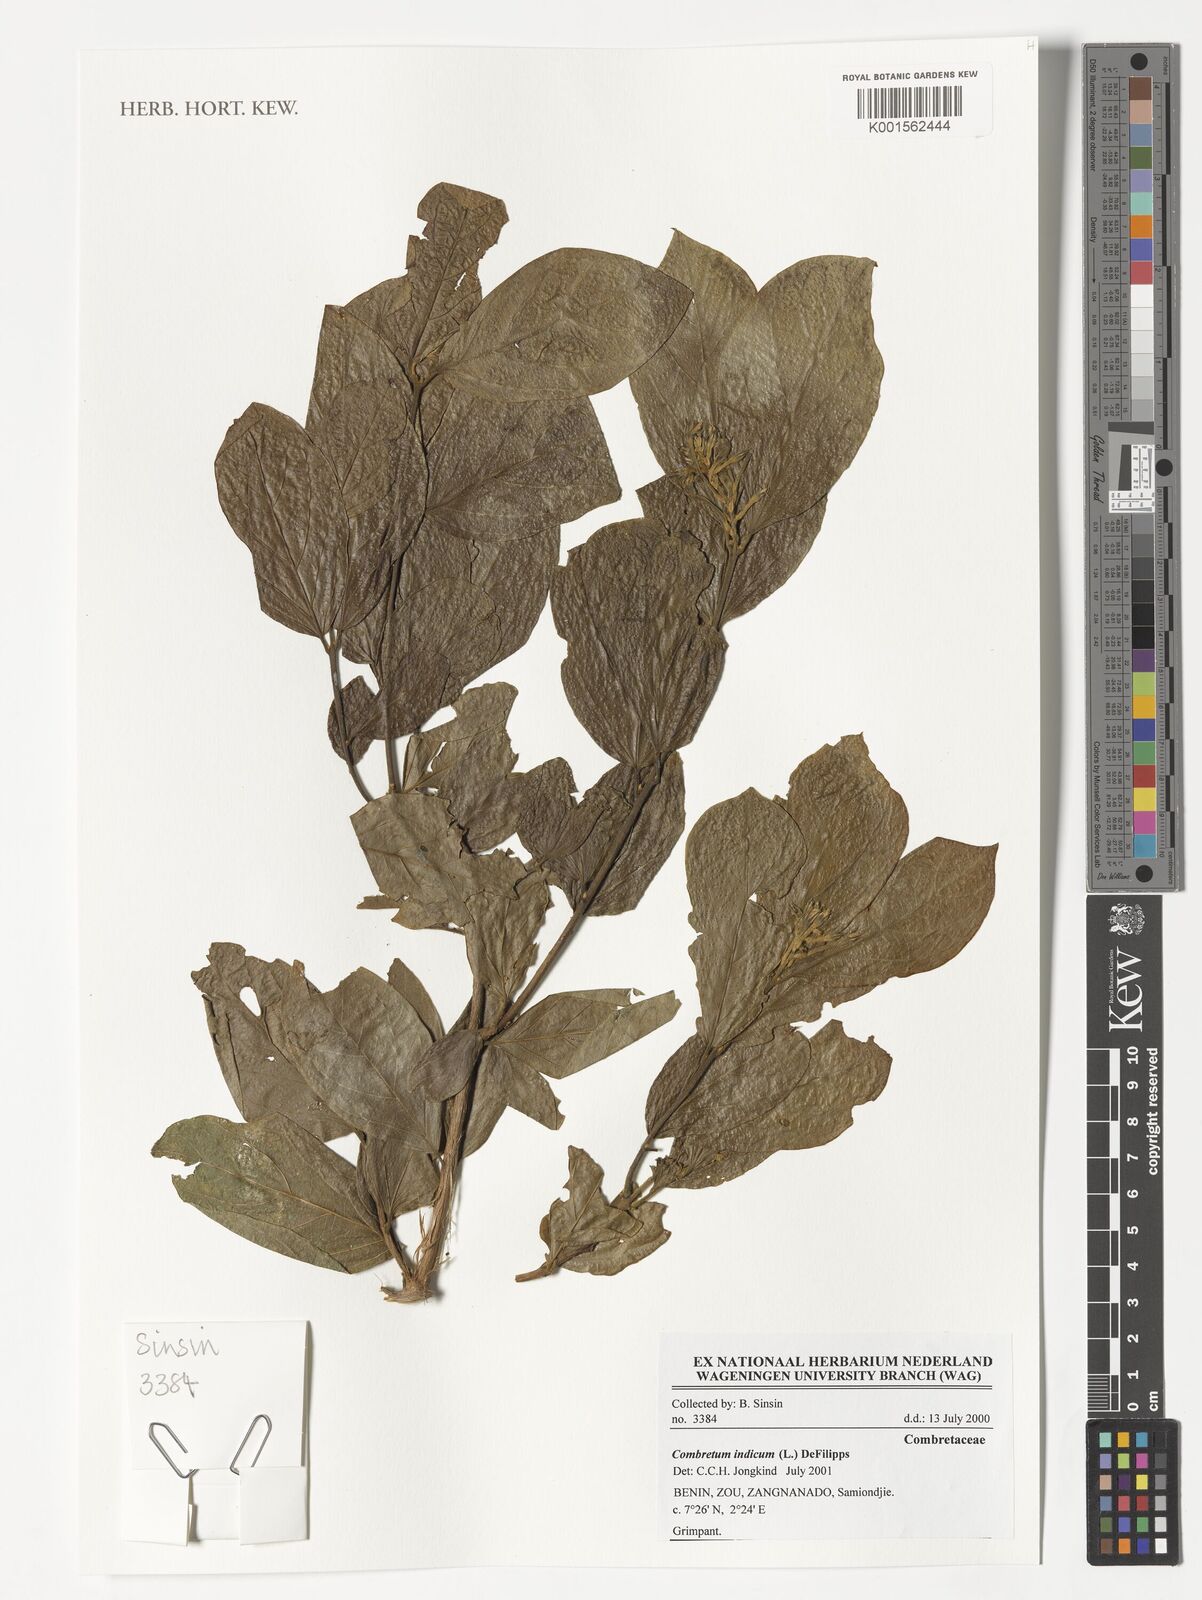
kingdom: Plantae
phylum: Tracheophyta
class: Magnoliopsida
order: Myrtales
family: Combretaceae
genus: Combretum
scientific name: Combretum indicum
